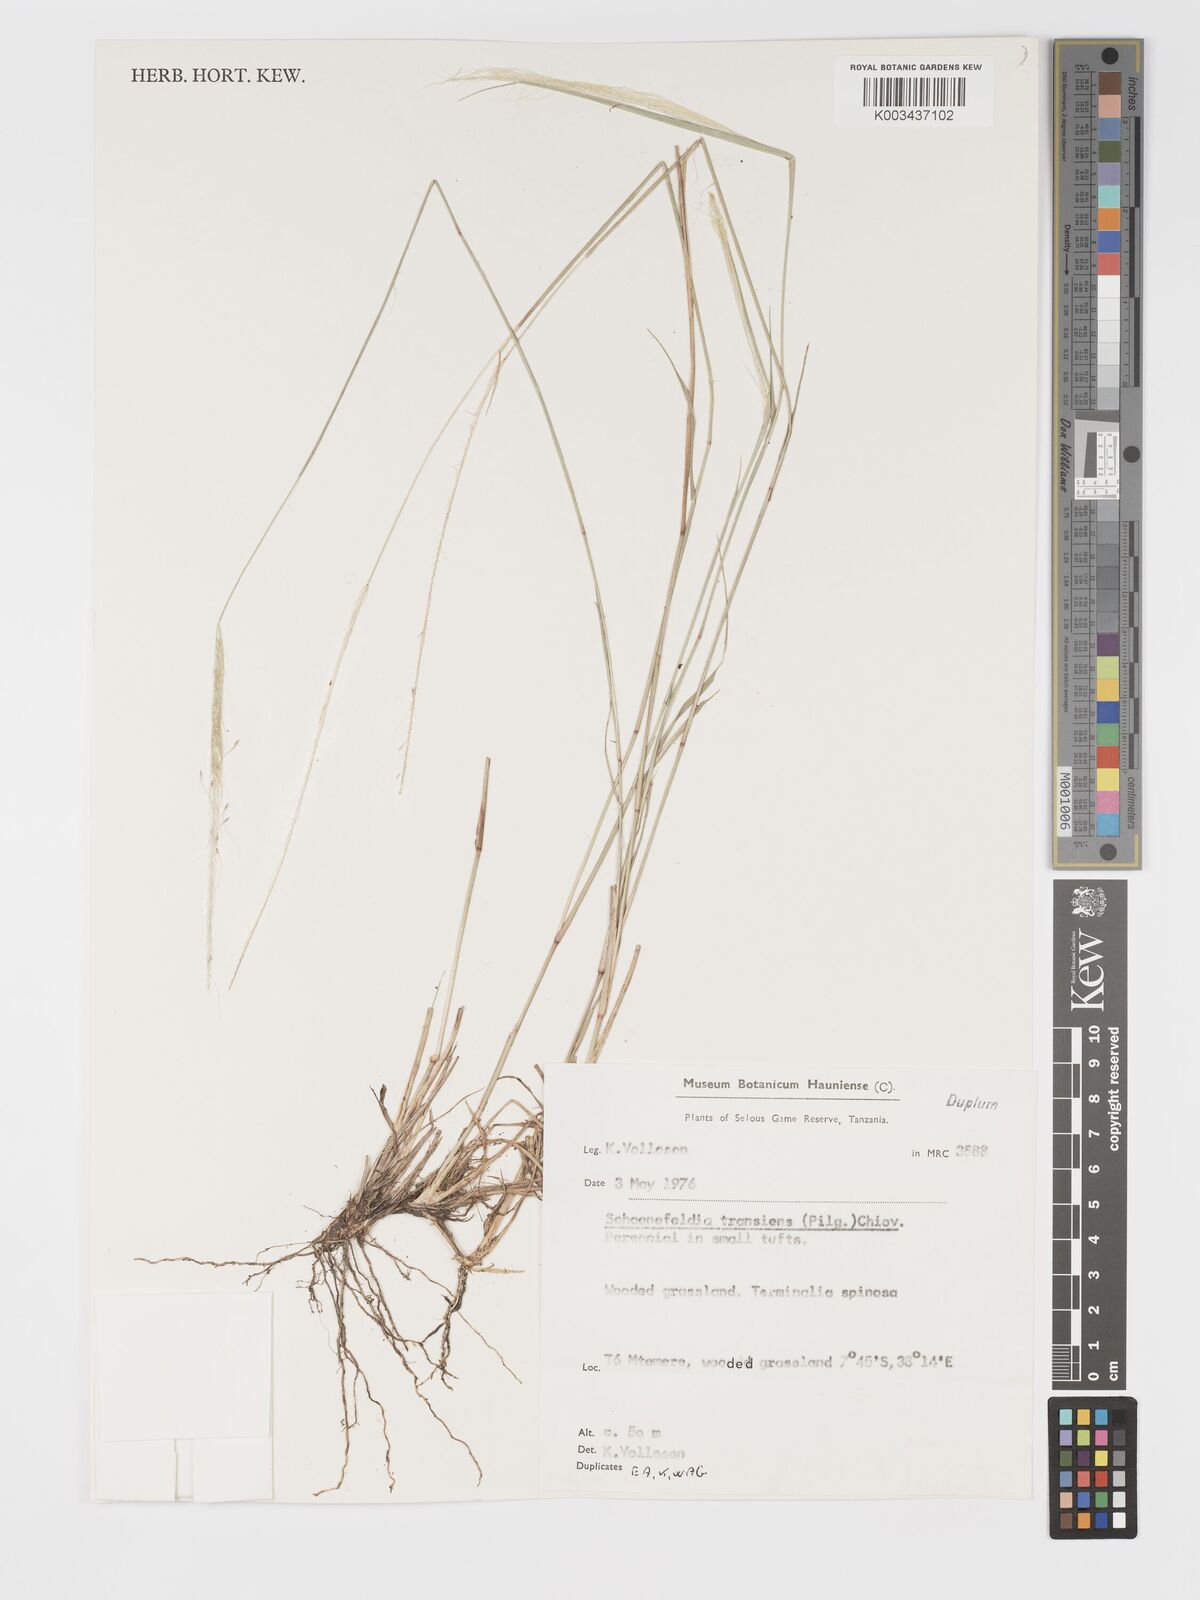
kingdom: Plantae
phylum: Tracheophyta
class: Liliopsida
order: Poales
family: Poaceae
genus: Schoenefeldia
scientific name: Schoenefeldia transiens
